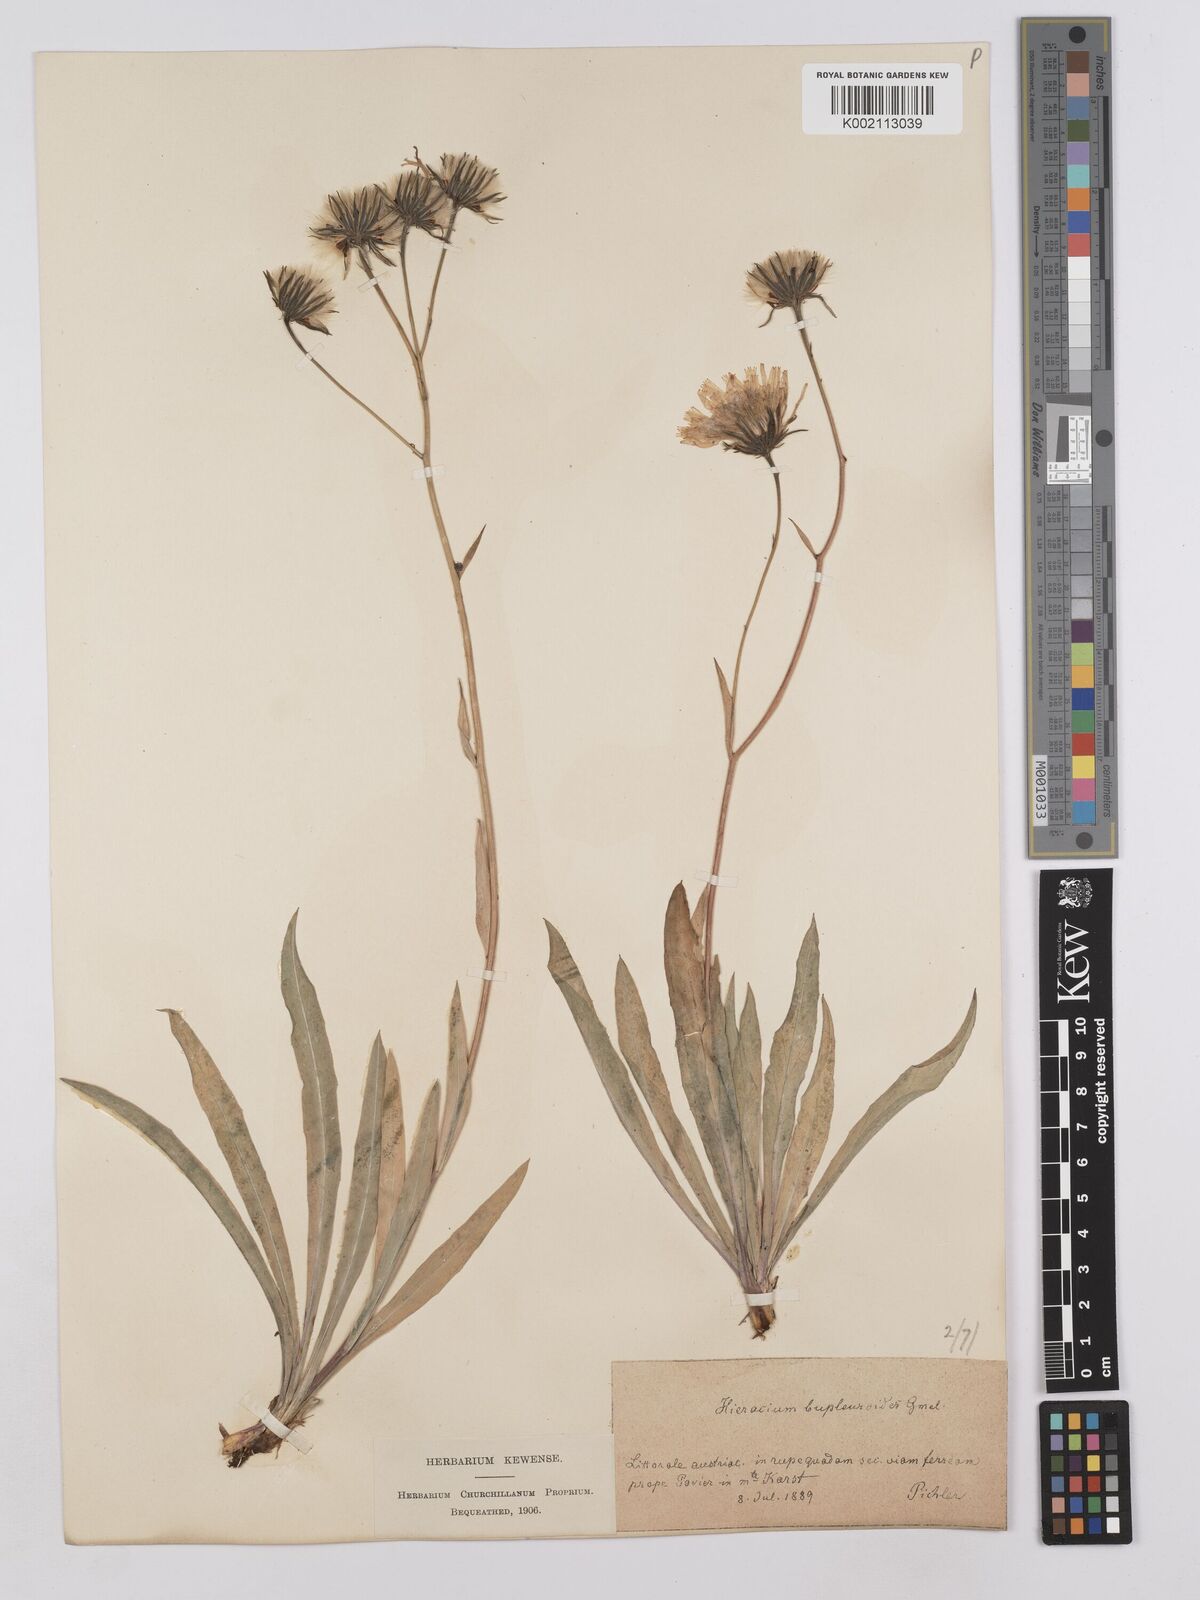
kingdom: Plantae
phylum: Tracheophyta
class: Magnoliopsida
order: Asterales
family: Asteraceae
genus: Hieracium
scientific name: Hieracium bupleuroides
